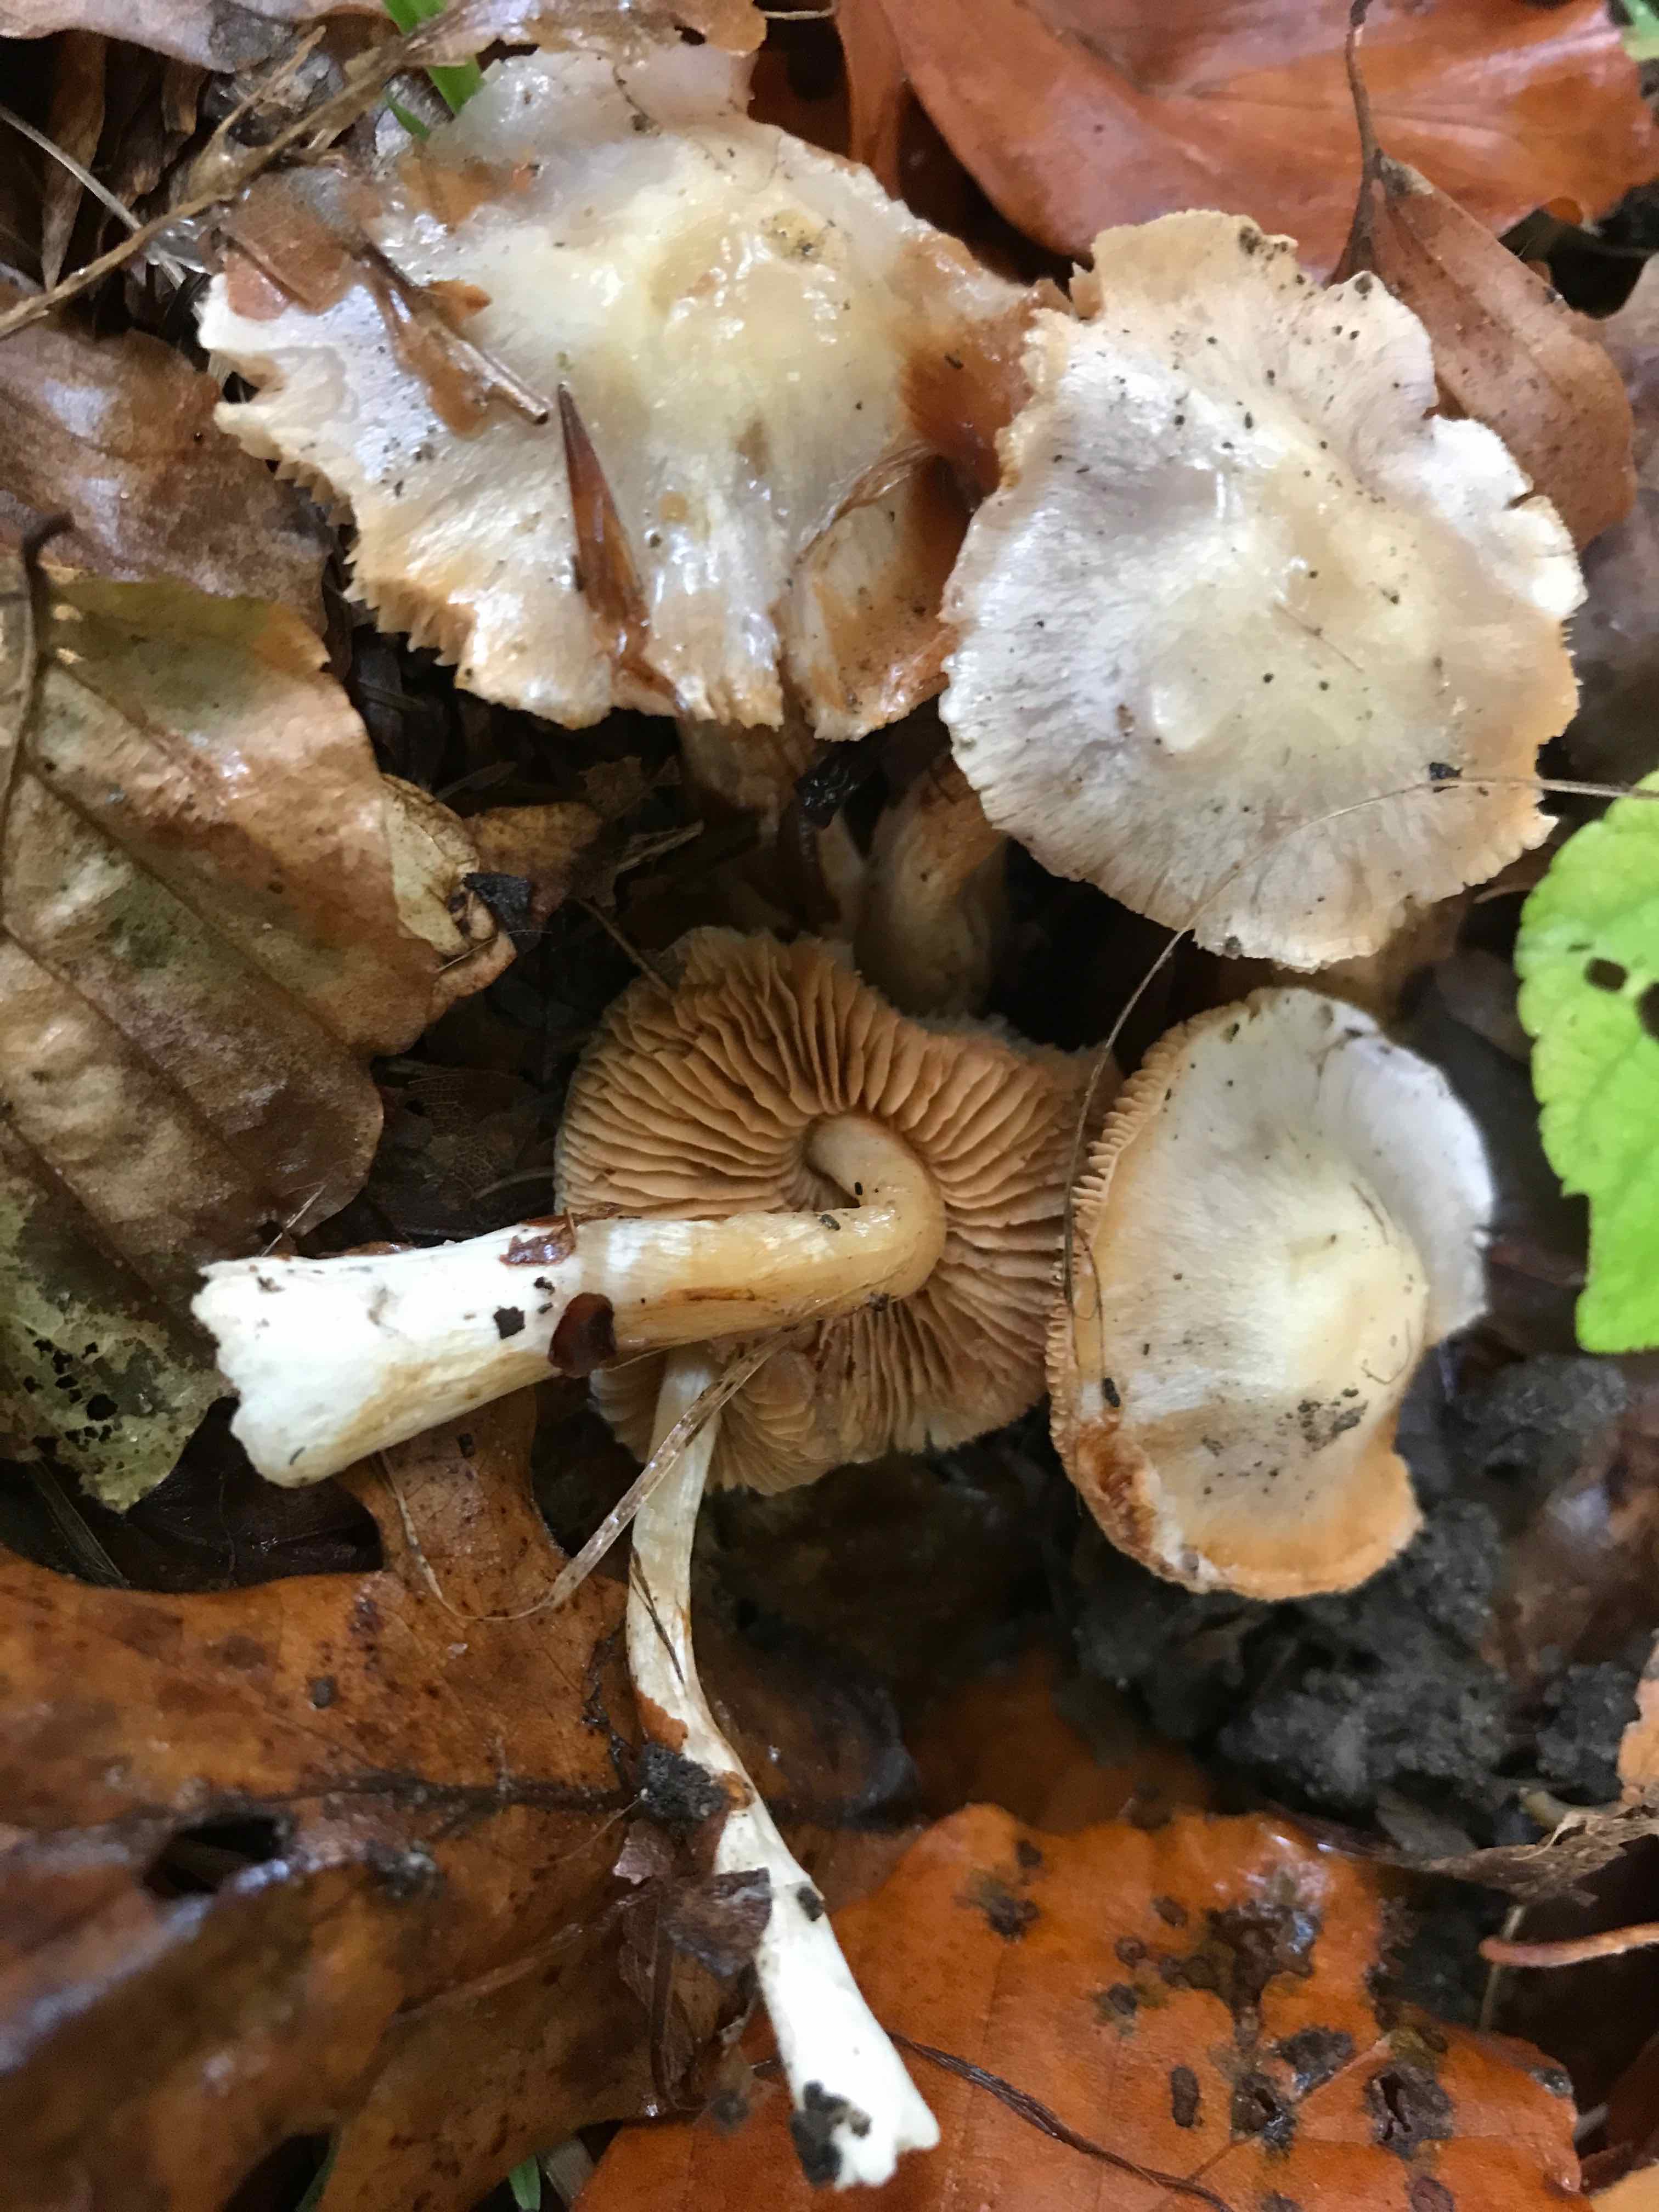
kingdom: Fungi
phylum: Basidiomycota
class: Agaricomycetes
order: Agaricales
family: Cortinariaceae
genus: Thaxterogaster
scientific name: Thaxterogaster croceocoeruleus
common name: blågullig slørhat
